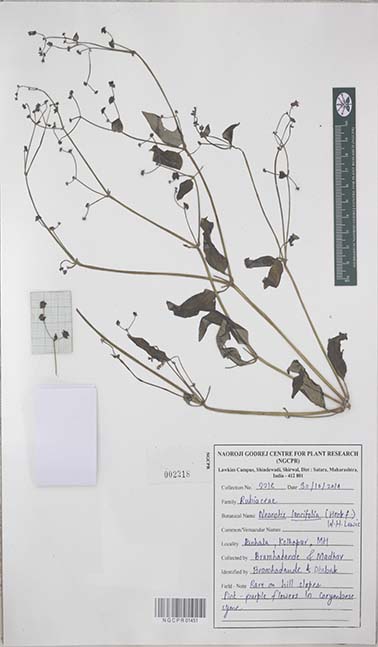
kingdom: Plantae
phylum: Tracheophyta
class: Magnoliopsida
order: Gentianales
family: Rubiaceae
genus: Neanotis
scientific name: Neanotis lancifolia
